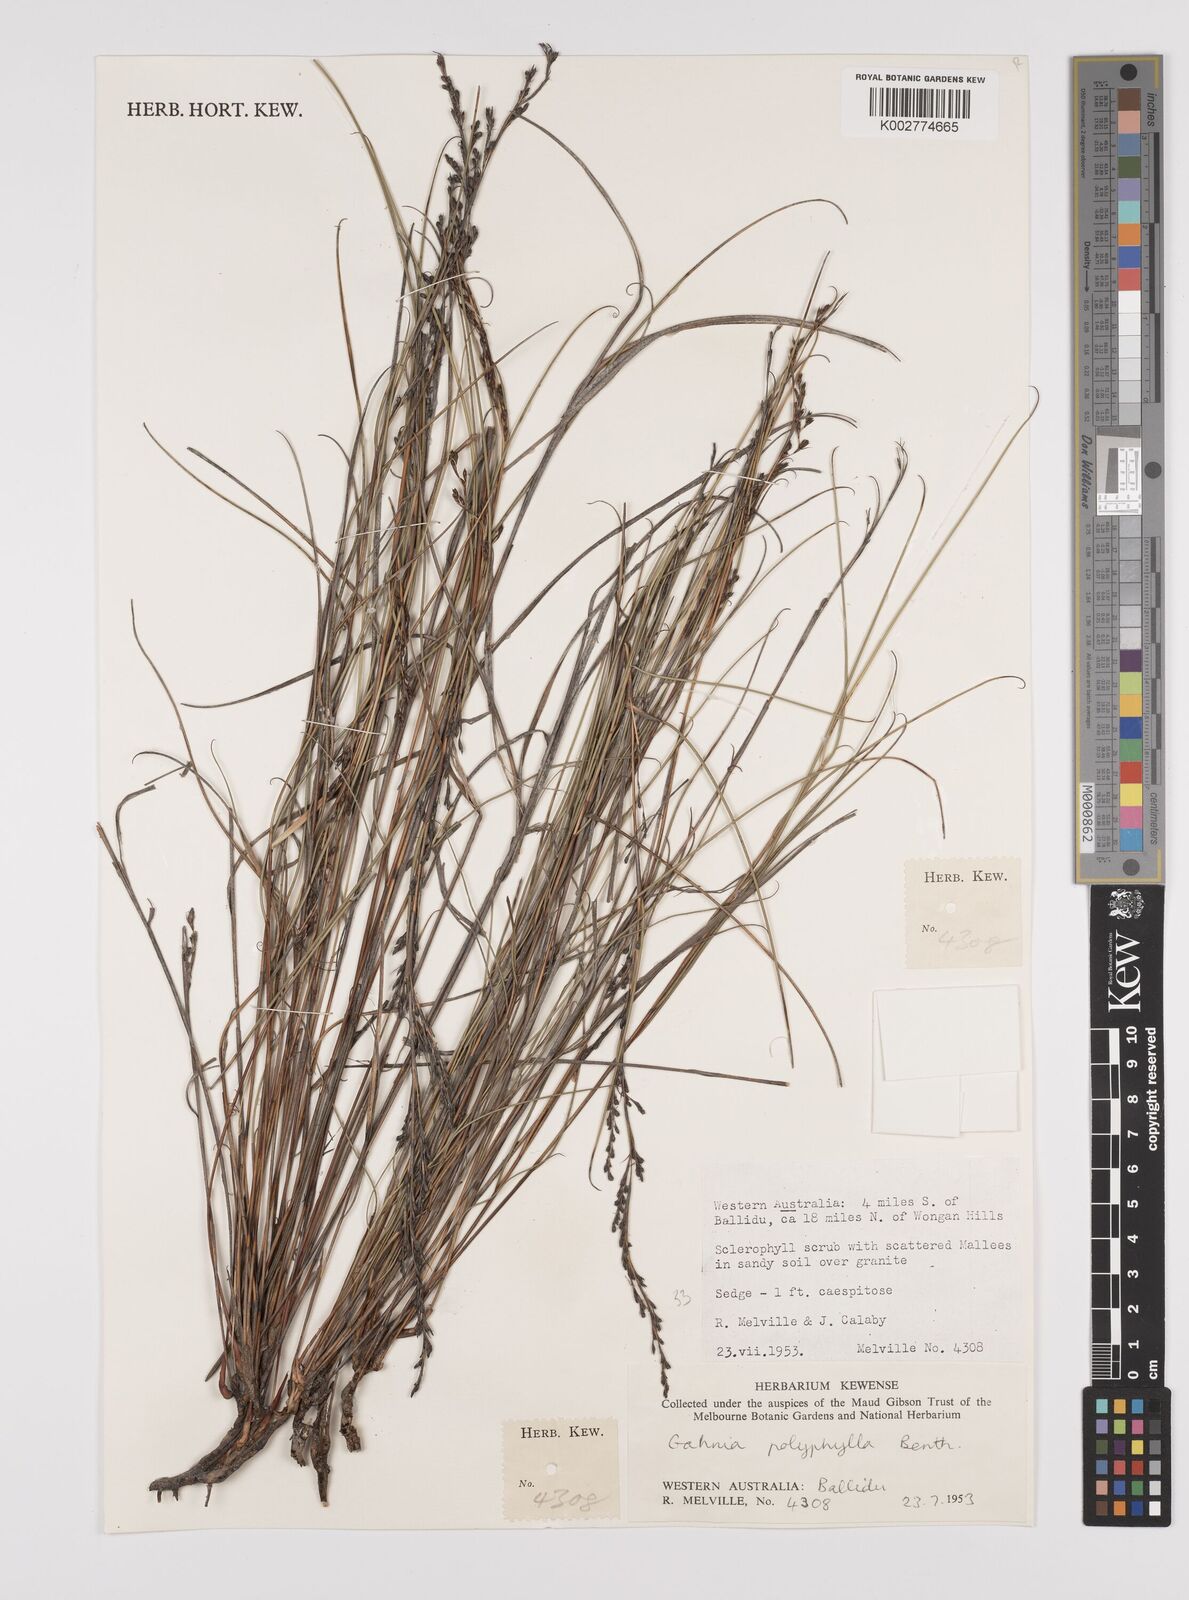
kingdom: Plantae
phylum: Tracheophyta
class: Liliopsida
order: Poales
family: Cyperaceae
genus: Gahnia
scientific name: Gahnia drummondii
